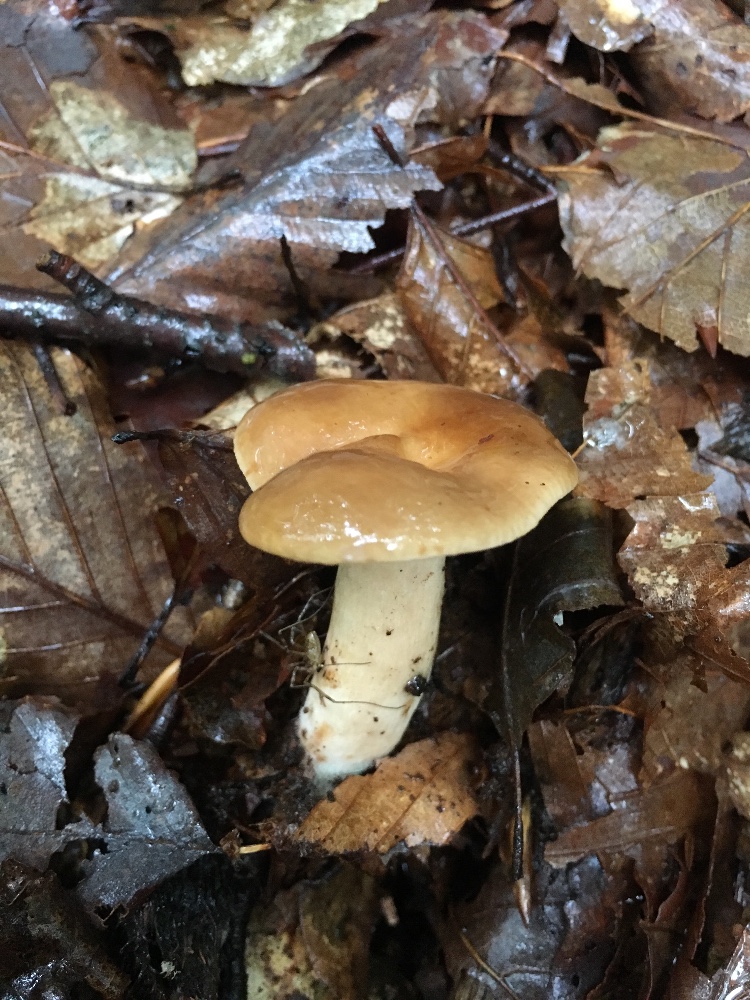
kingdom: Fungi
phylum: Basidiomycota
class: Agaricomycetes
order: Russulales
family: Russulaceae
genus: Lactarius
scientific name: Lactarius pallidus
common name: bleg mælkehat
